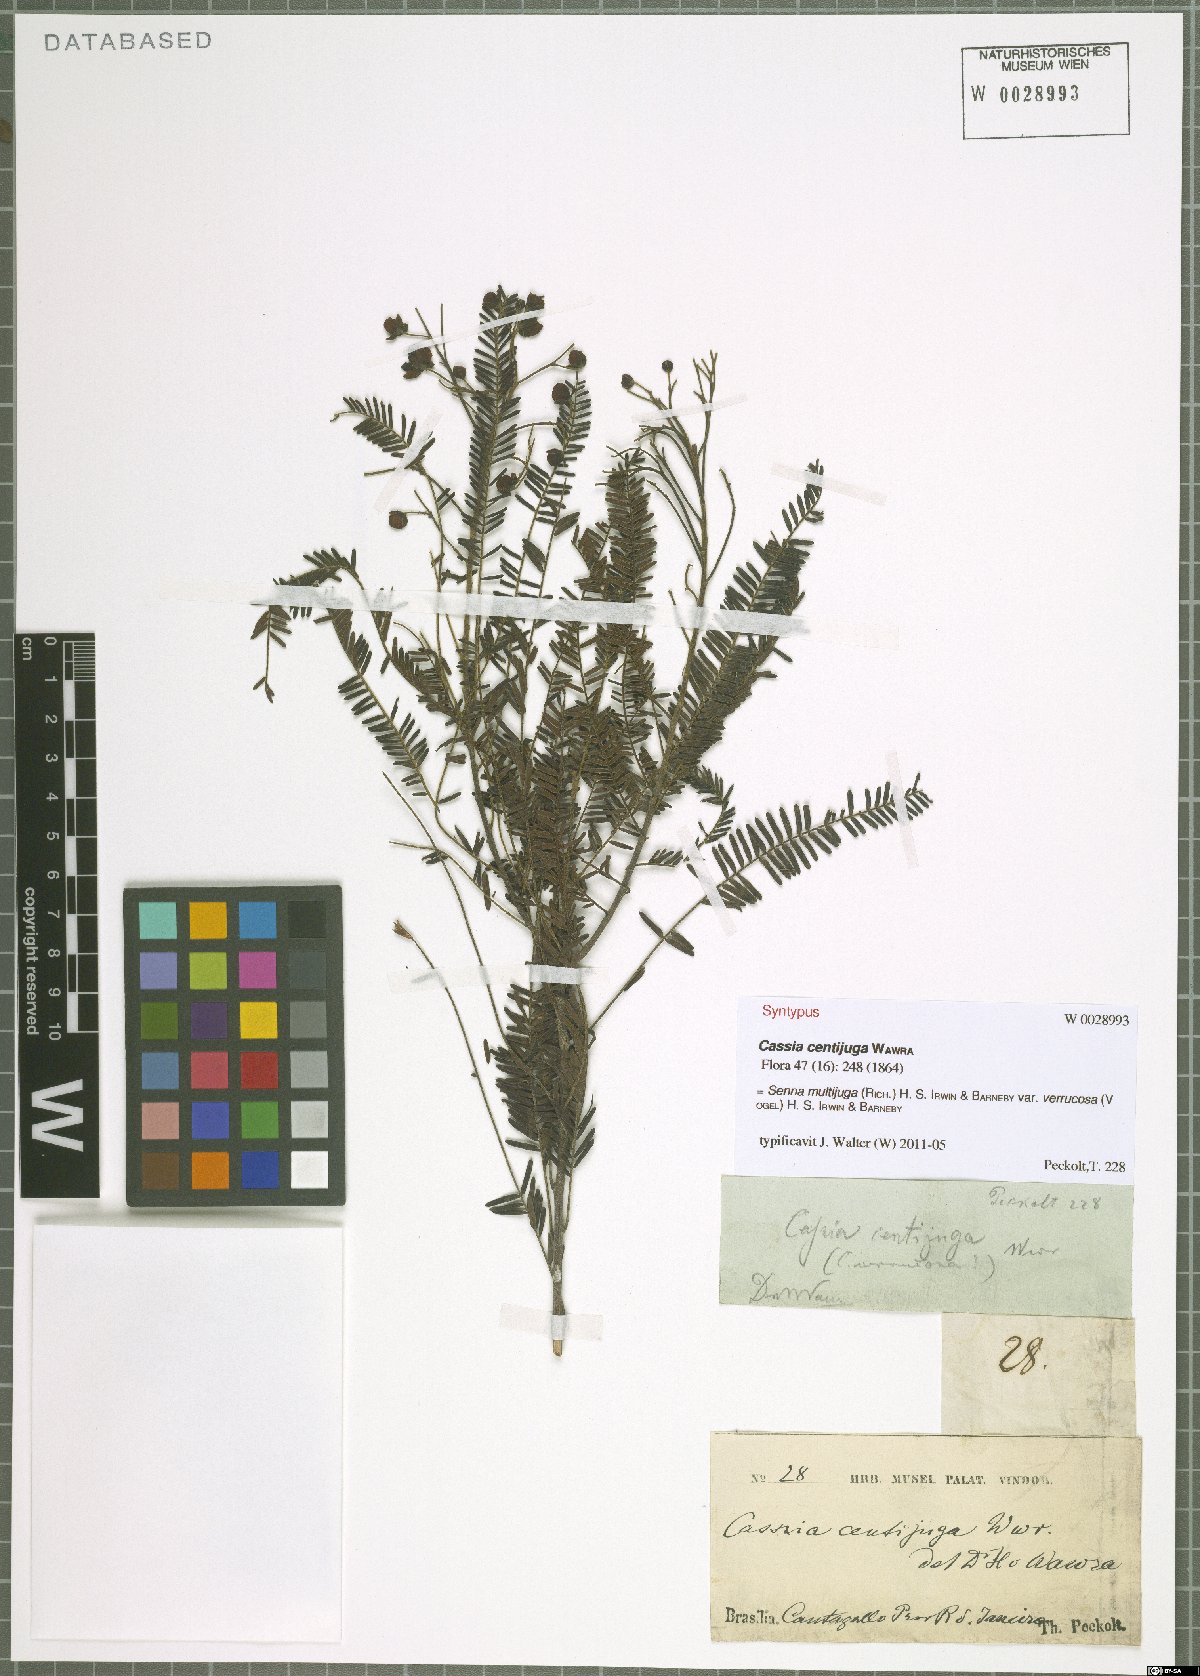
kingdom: Plantae
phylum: Tracheophyta
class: Magnoliopsida
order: Fabales
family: Fabaceae
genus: Senna
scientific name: Senna multijuga
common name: False sicklepod
